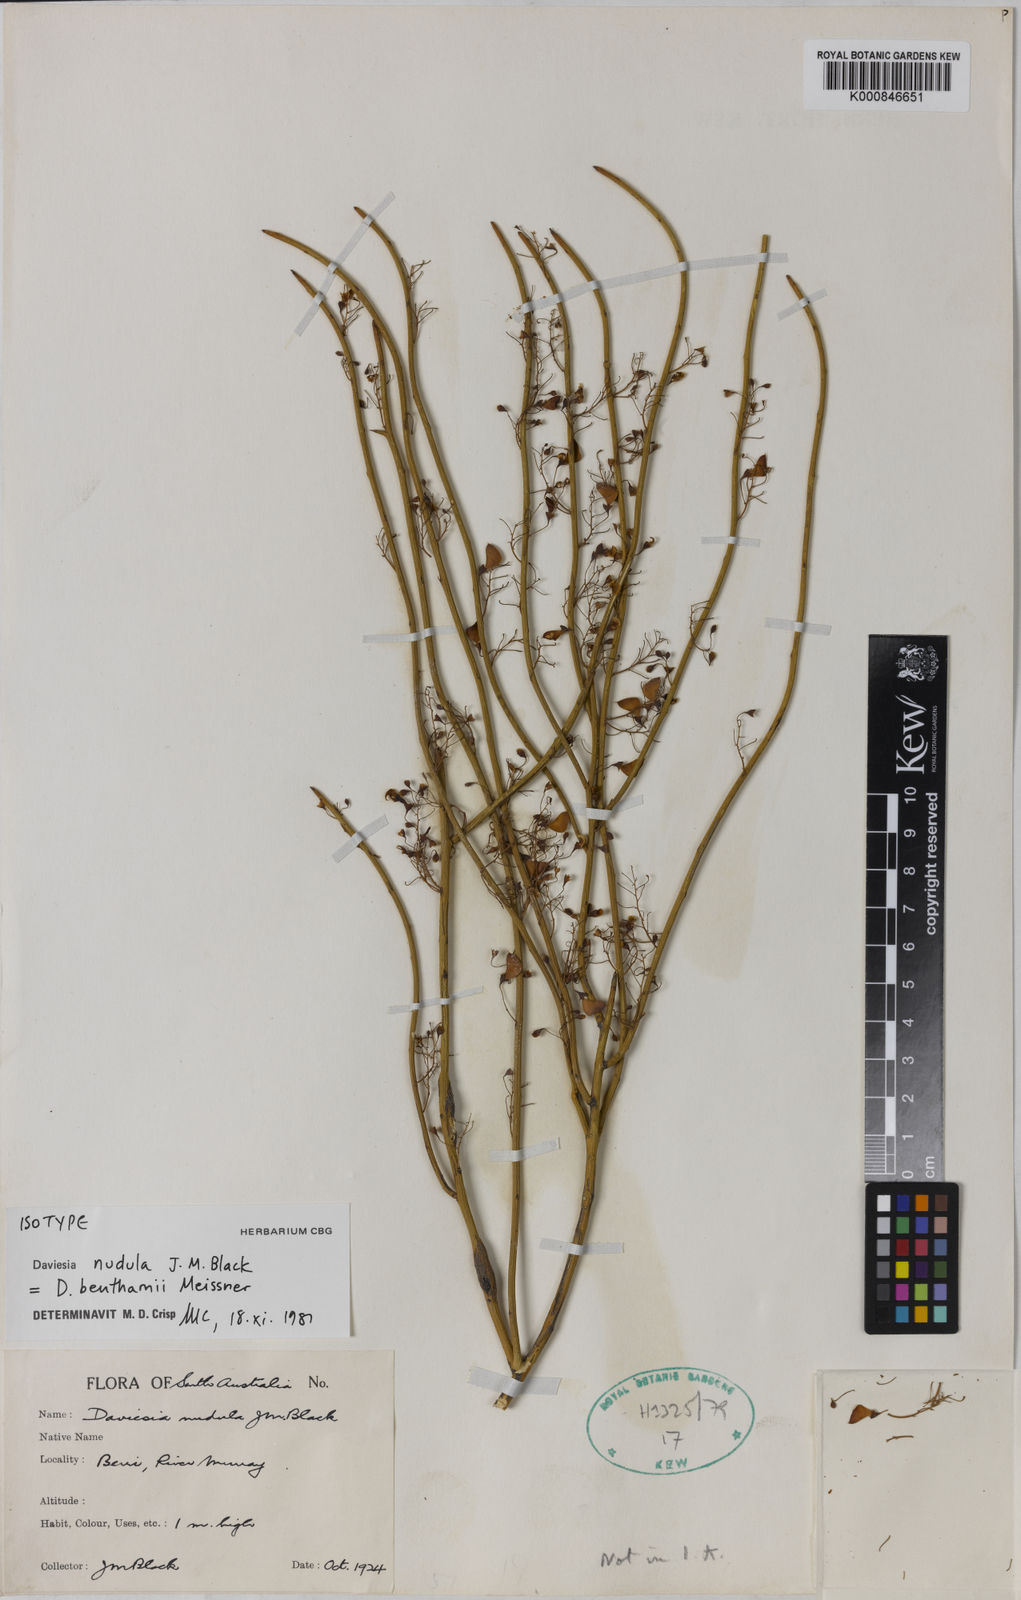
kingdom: Plantae
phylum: Tracheophyta
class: Magnoliopsida
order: Fabales
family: Fabaceae
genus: Daviesia
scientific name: Daviesia benthamii
